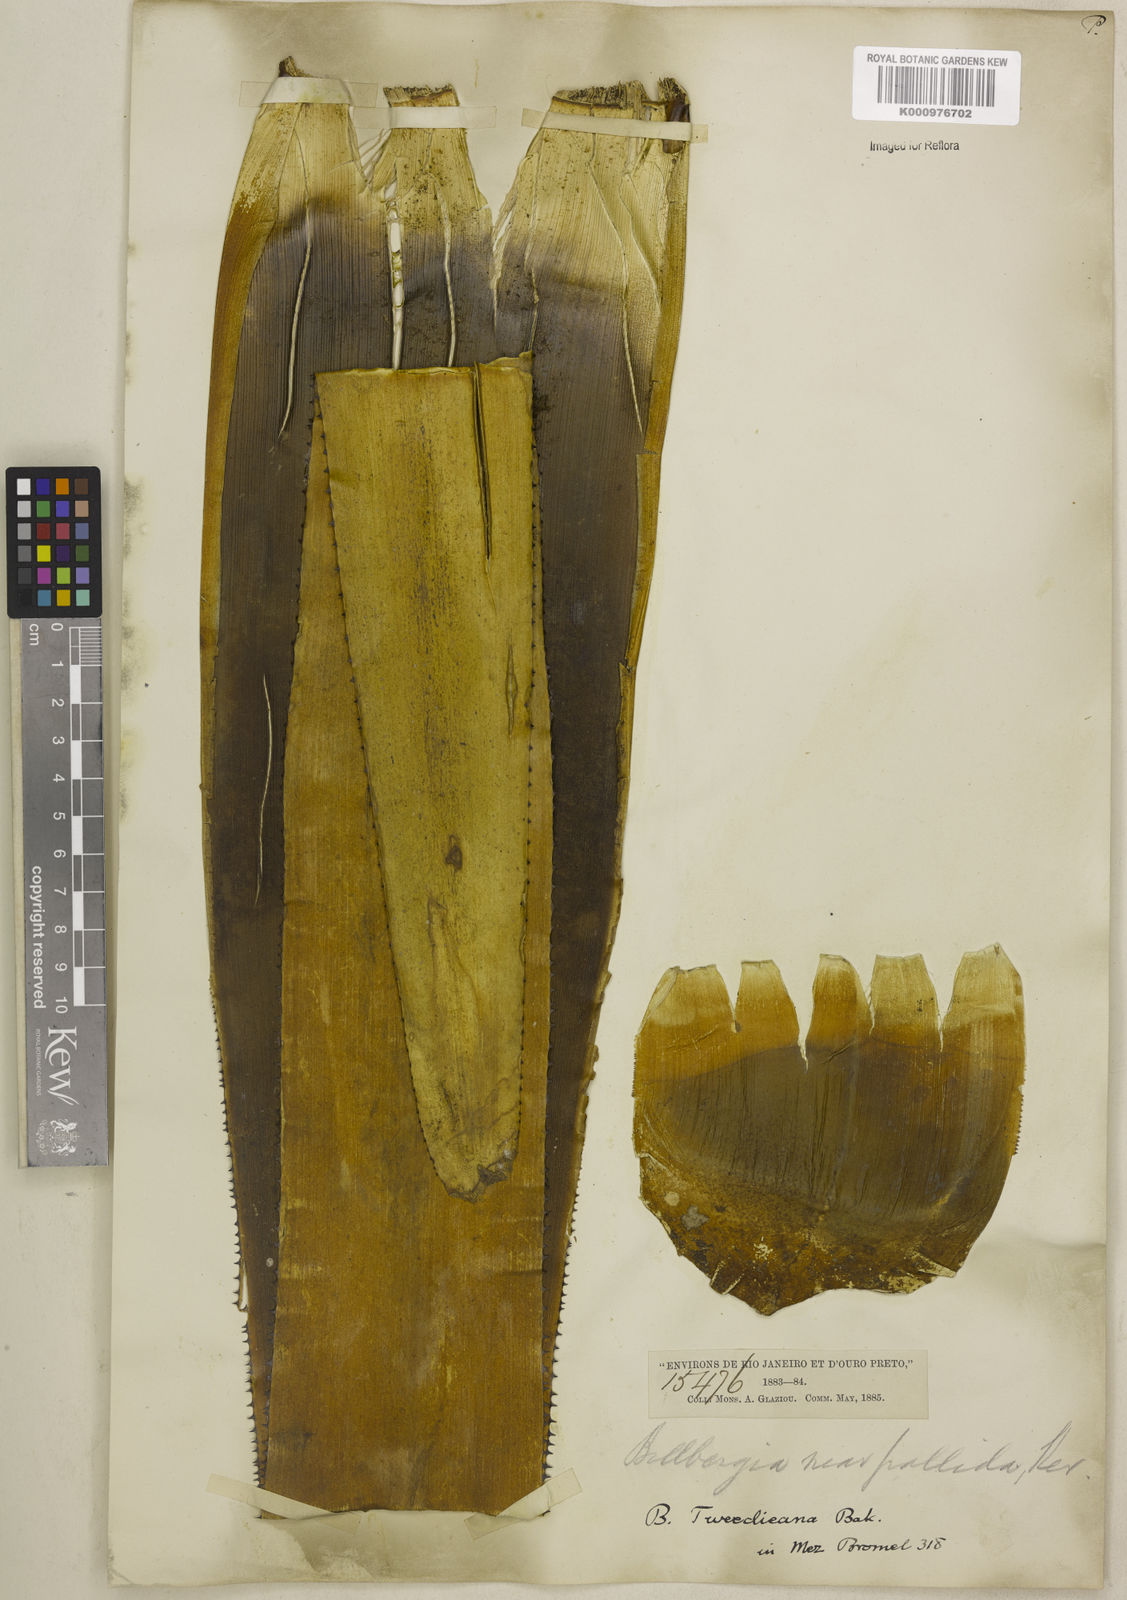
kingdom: Plantae
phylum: Tracheophyta
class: Liliopsida
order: Poales
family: Bromeliaceae
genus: Billbergia
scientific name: Billbergia tweedieana
